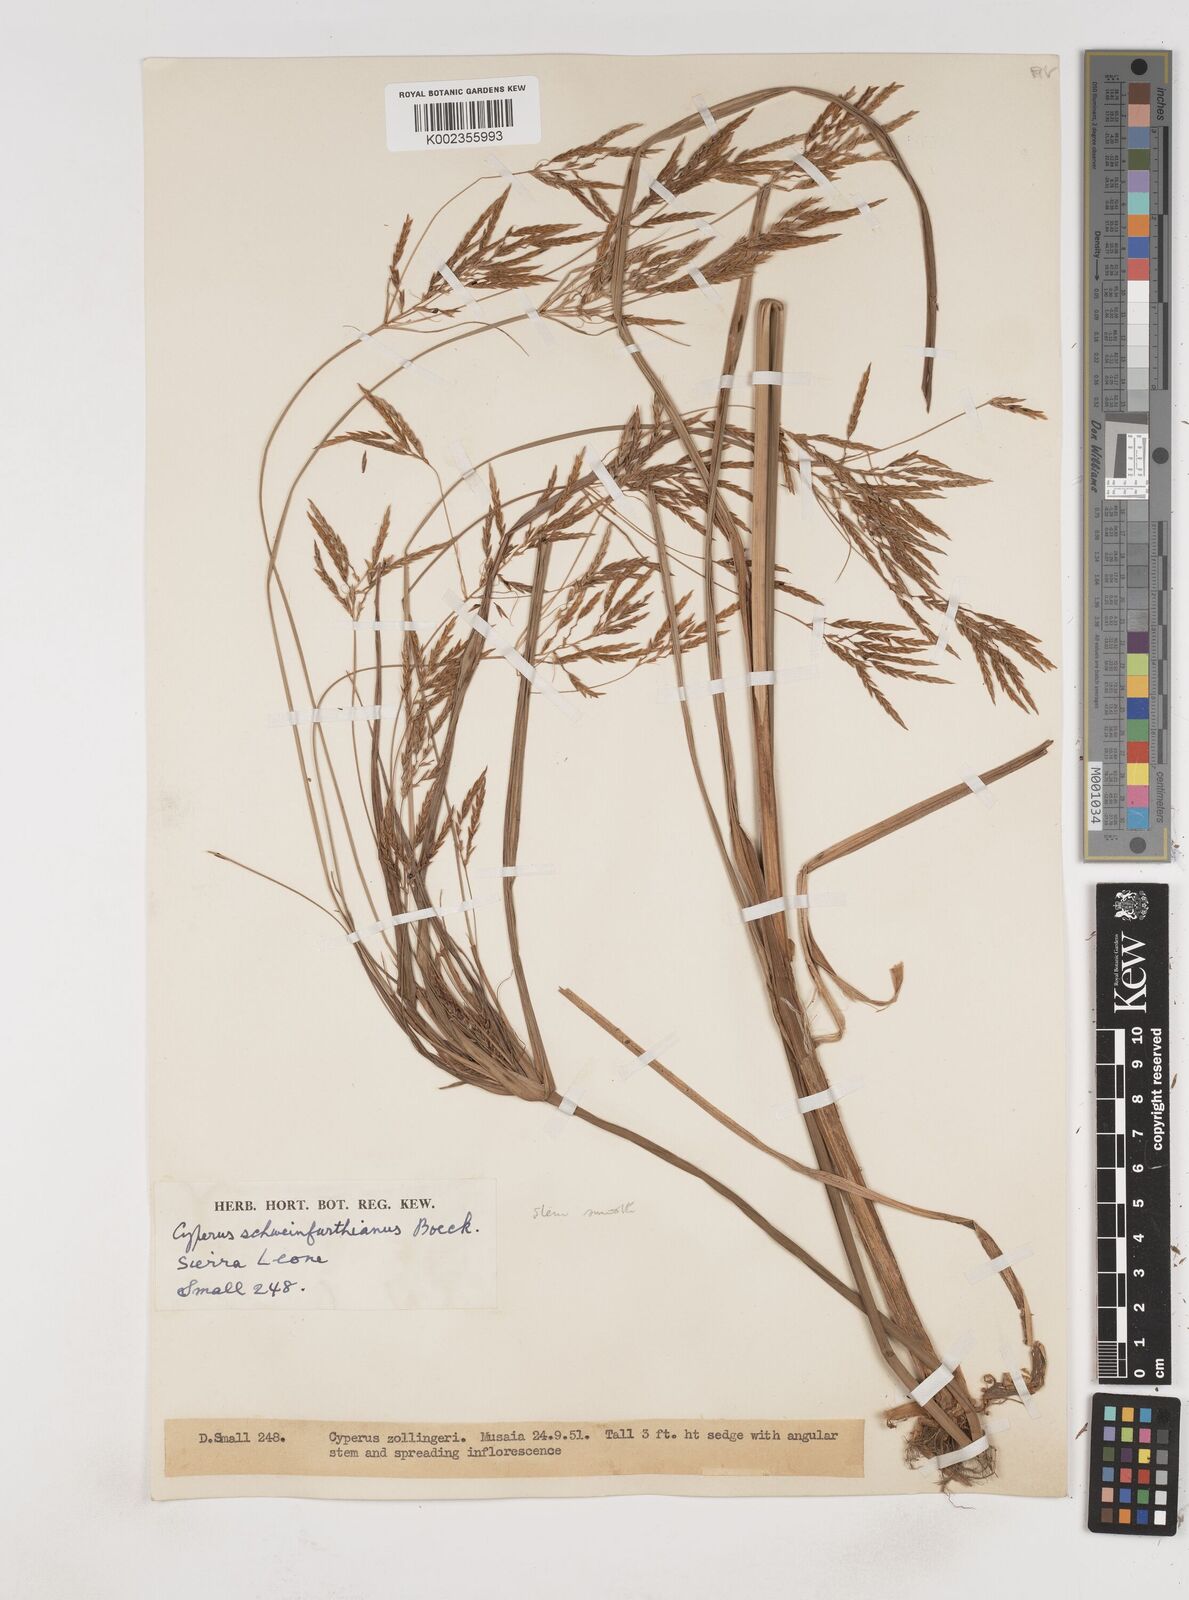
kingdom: Plantae
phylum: Tracheophyta
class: Liliopsida
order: Poales
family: Cyperaceae
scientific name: Cyperaceae
